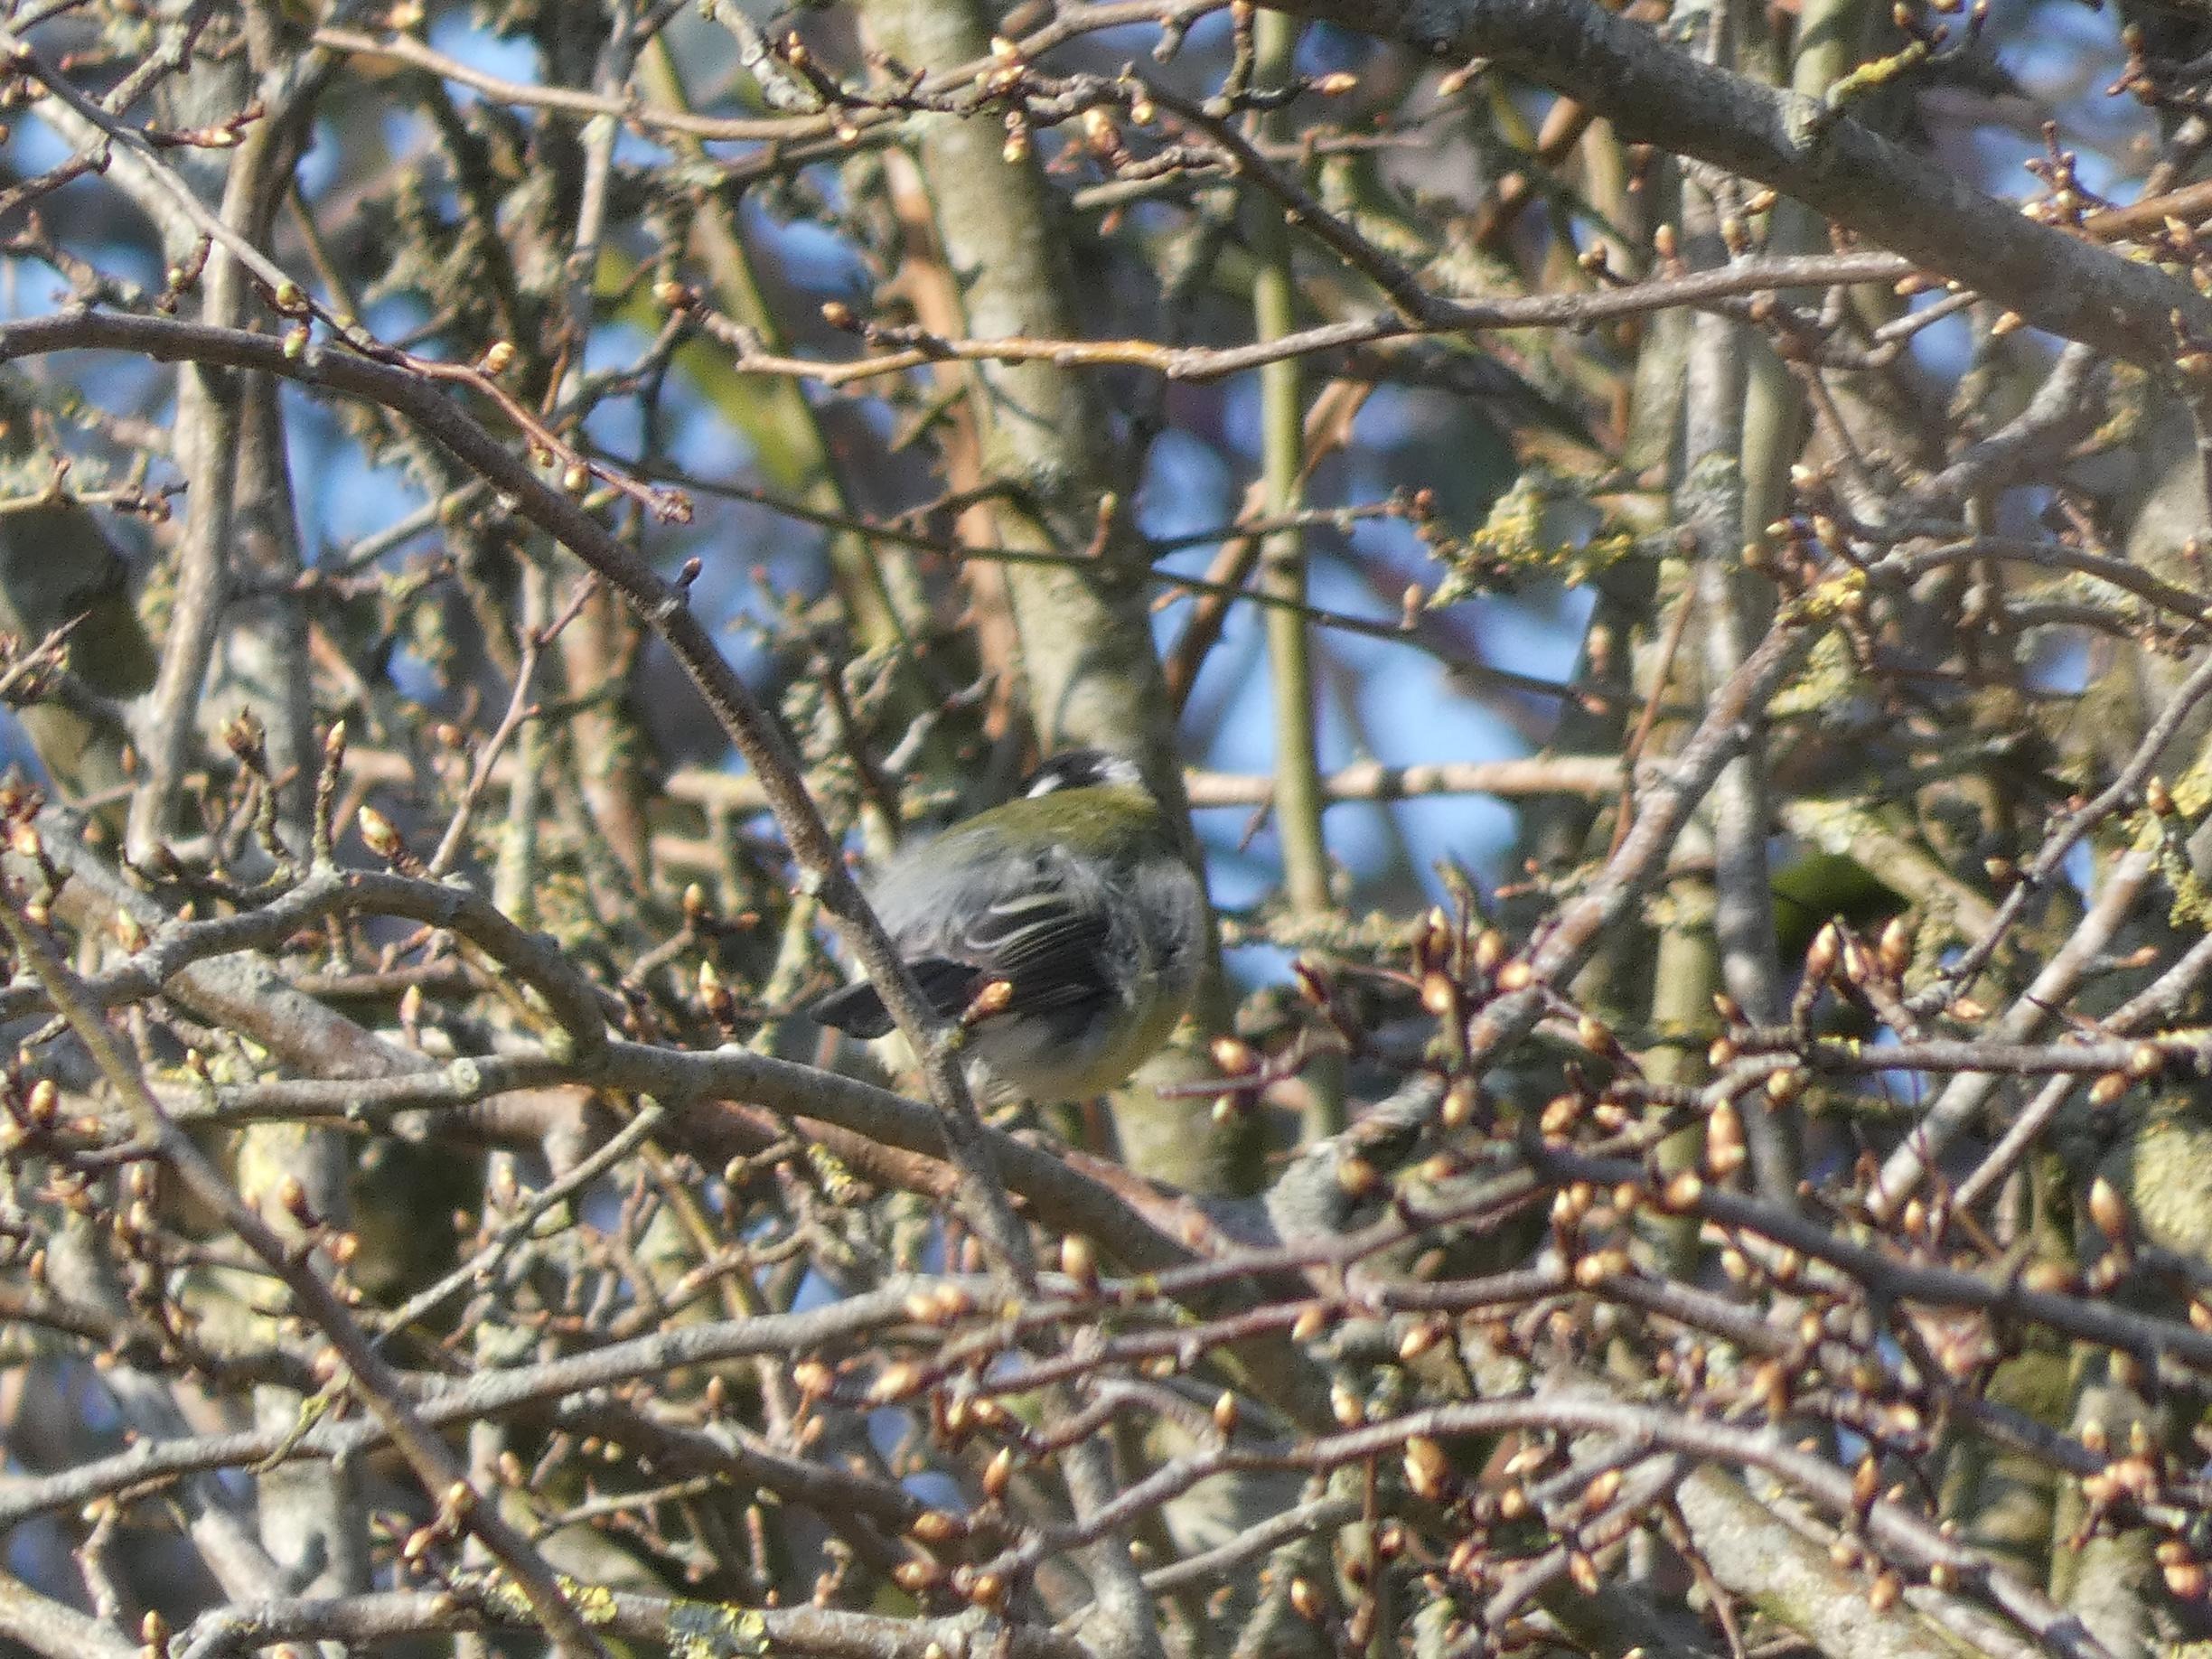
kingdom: Animalia
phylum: Chordata
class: Aves
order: Passeriformes
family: Paridae
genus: Parus
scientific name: Parus major
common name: Musvit
